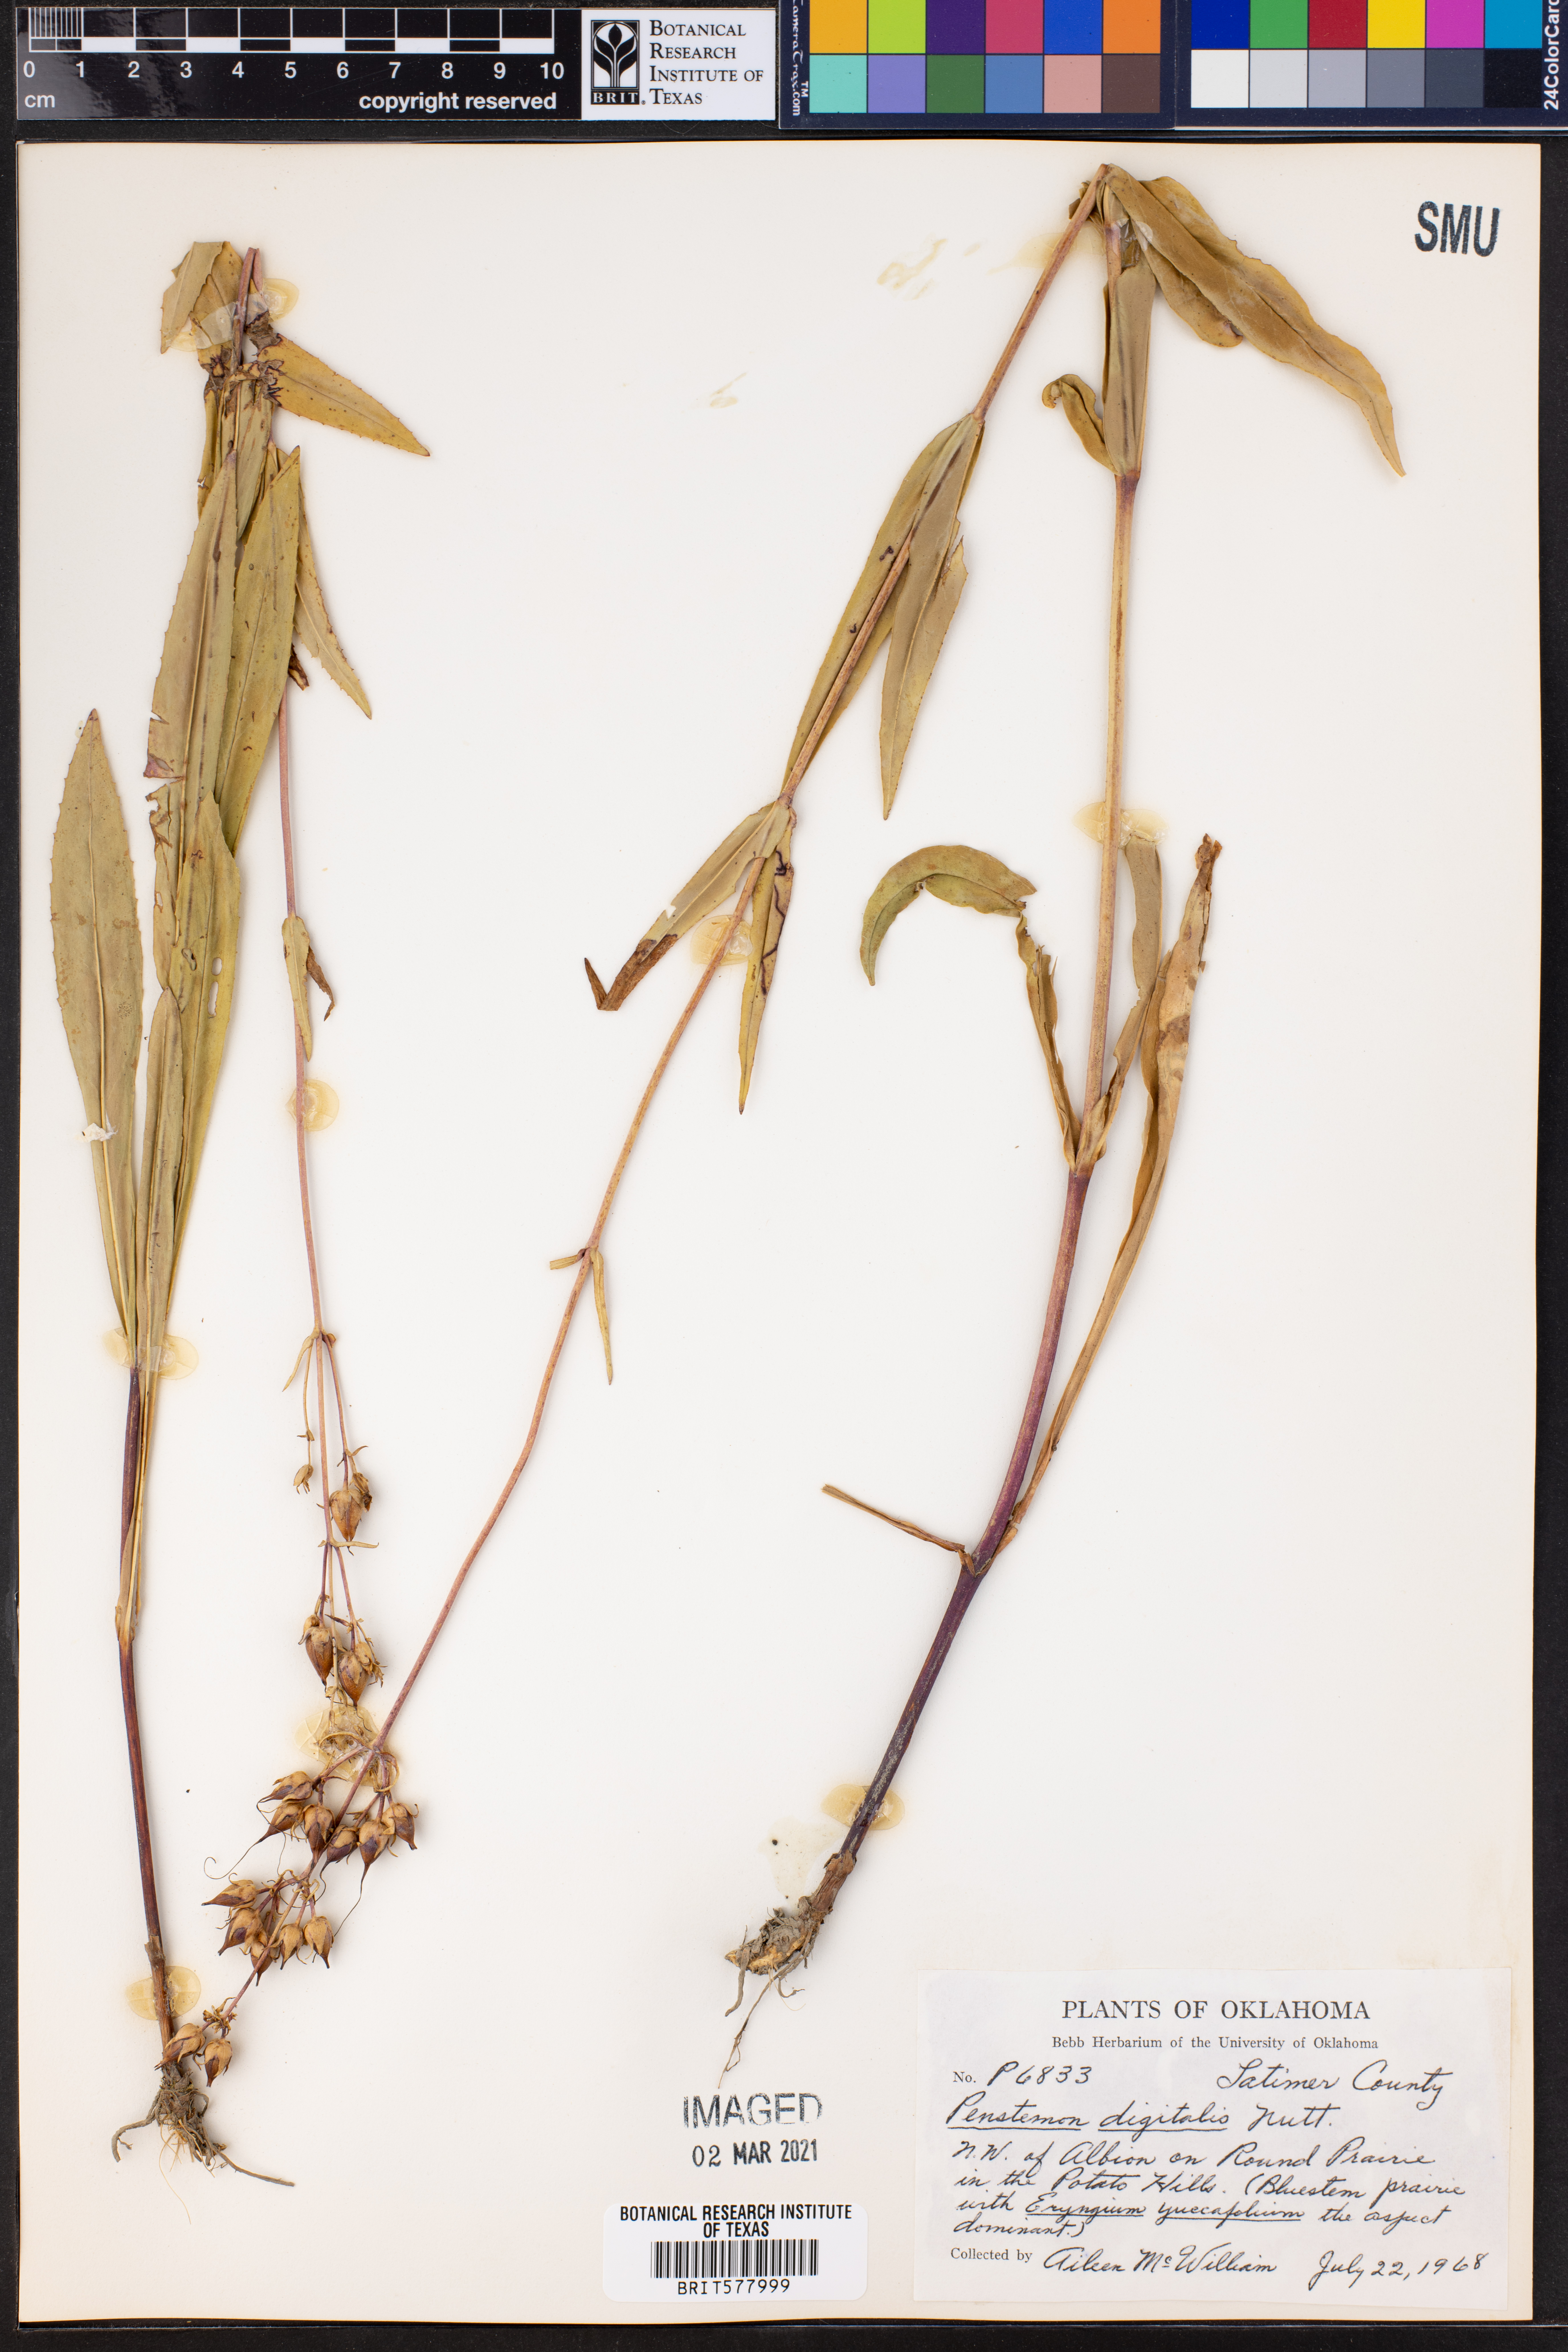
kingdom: Plantae
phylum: Tracheophyta
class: Magnoliopsida
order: Lamiales
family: Plantaginaceae
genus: Penstemon
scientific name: Penstemon digitalis
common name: Foxglove beardtongue
